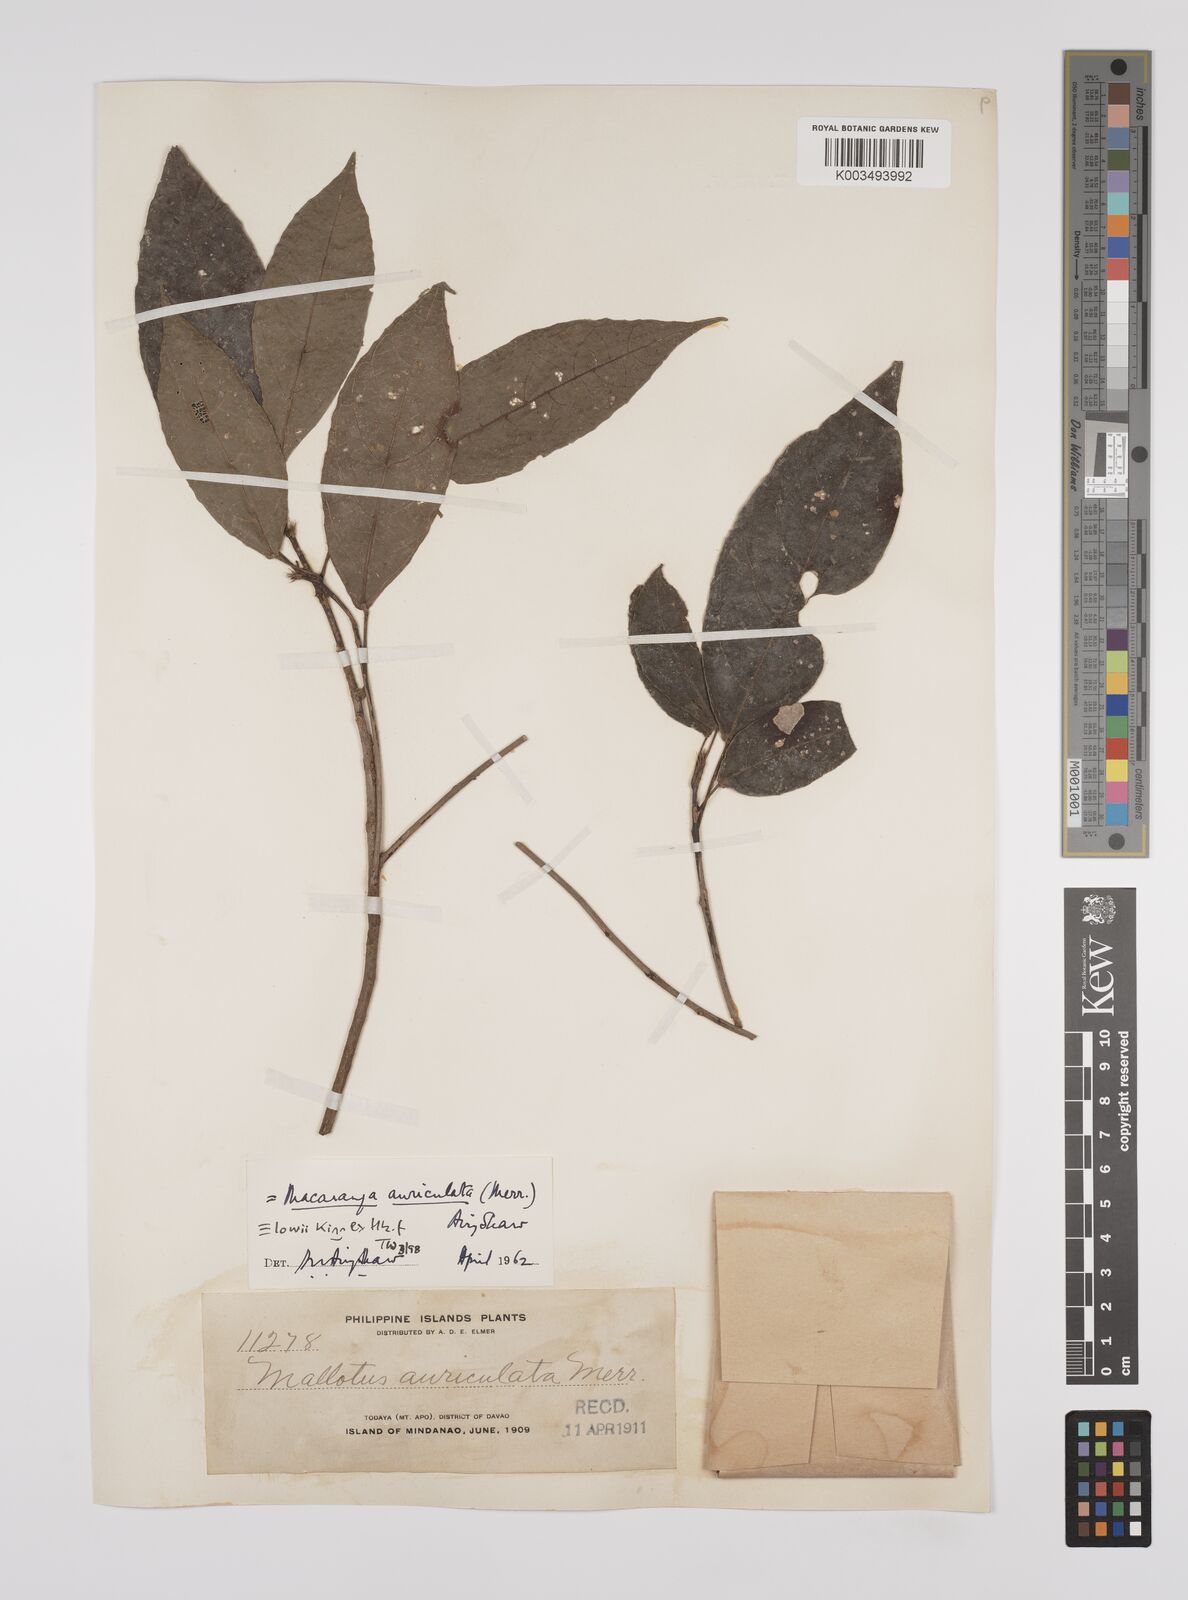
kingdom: Plantae
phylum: Tracheophyta
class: Magnoliopsida
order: Malpighiales
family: Euphorbiaceae
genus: Macaranga
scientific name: Macaranga lowii
